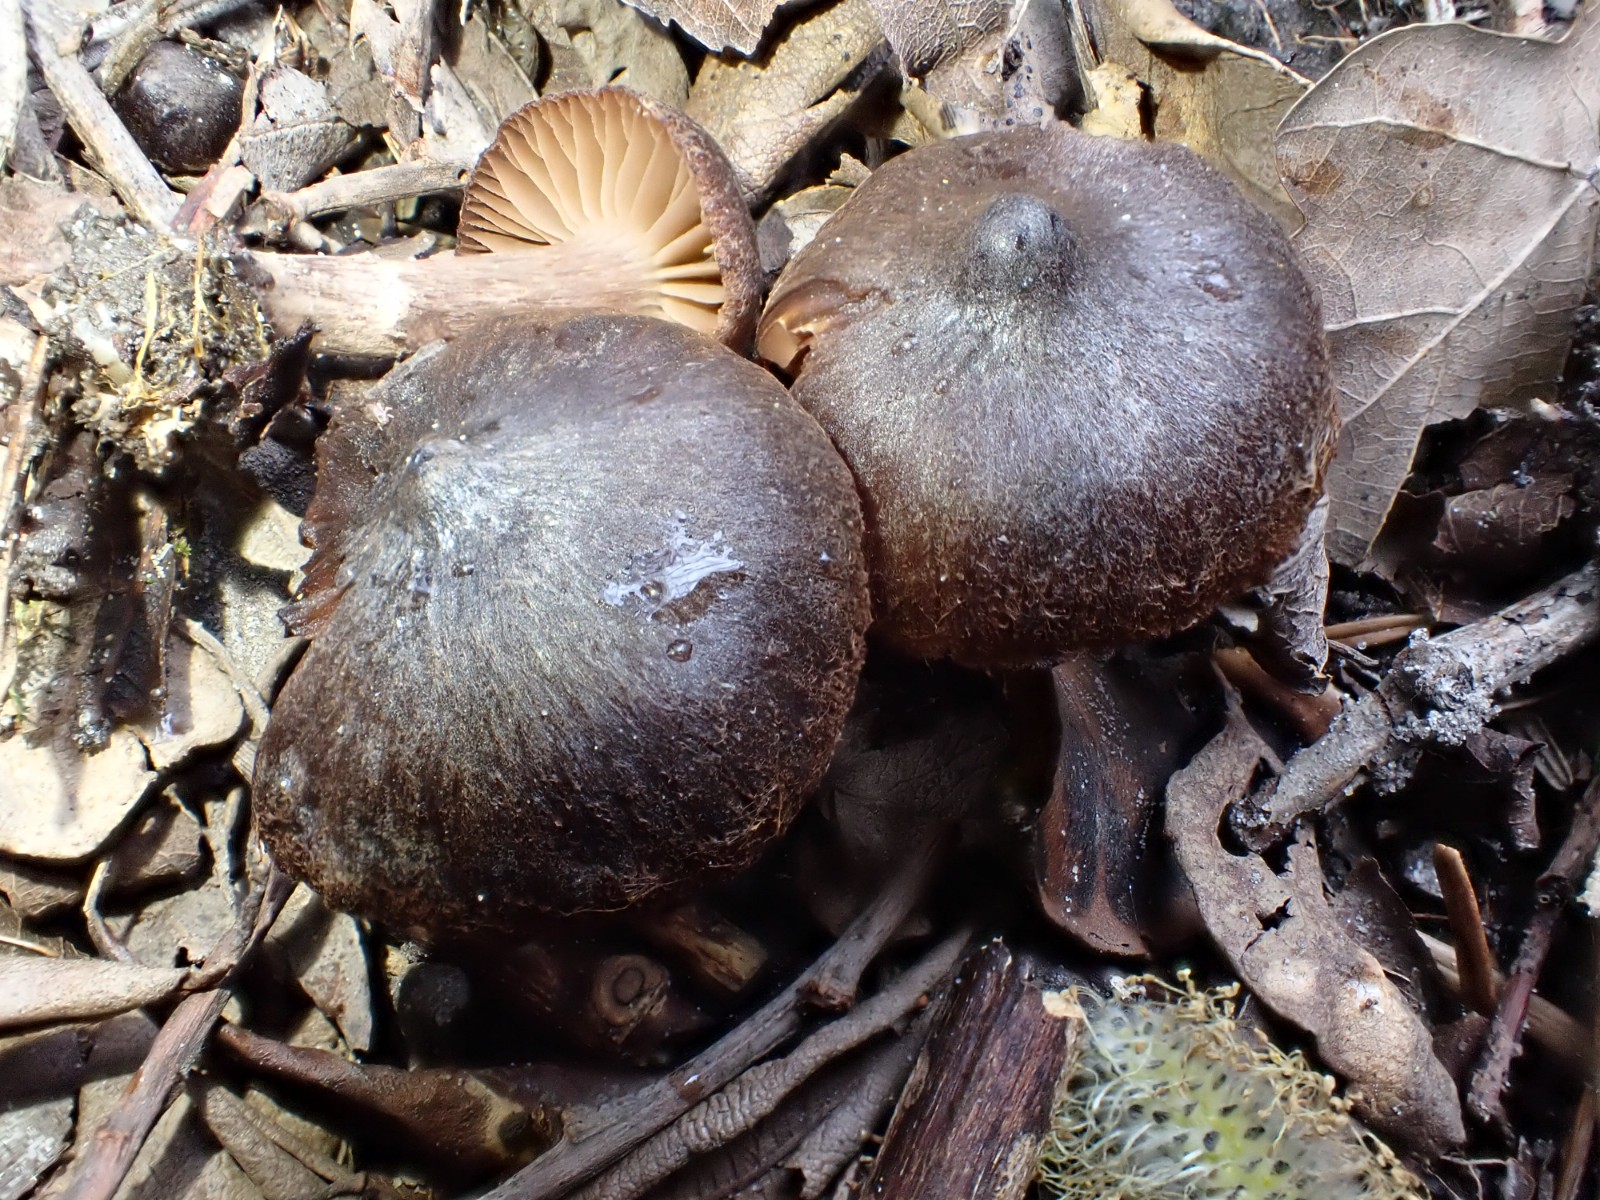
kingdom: Fungi
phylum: Basidiomycota
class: Agaricomycetes
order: Agaricales
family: Cortinariaceae
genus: Cortinarius
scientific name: Cortinarius vernus
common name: sommer-slørhat
